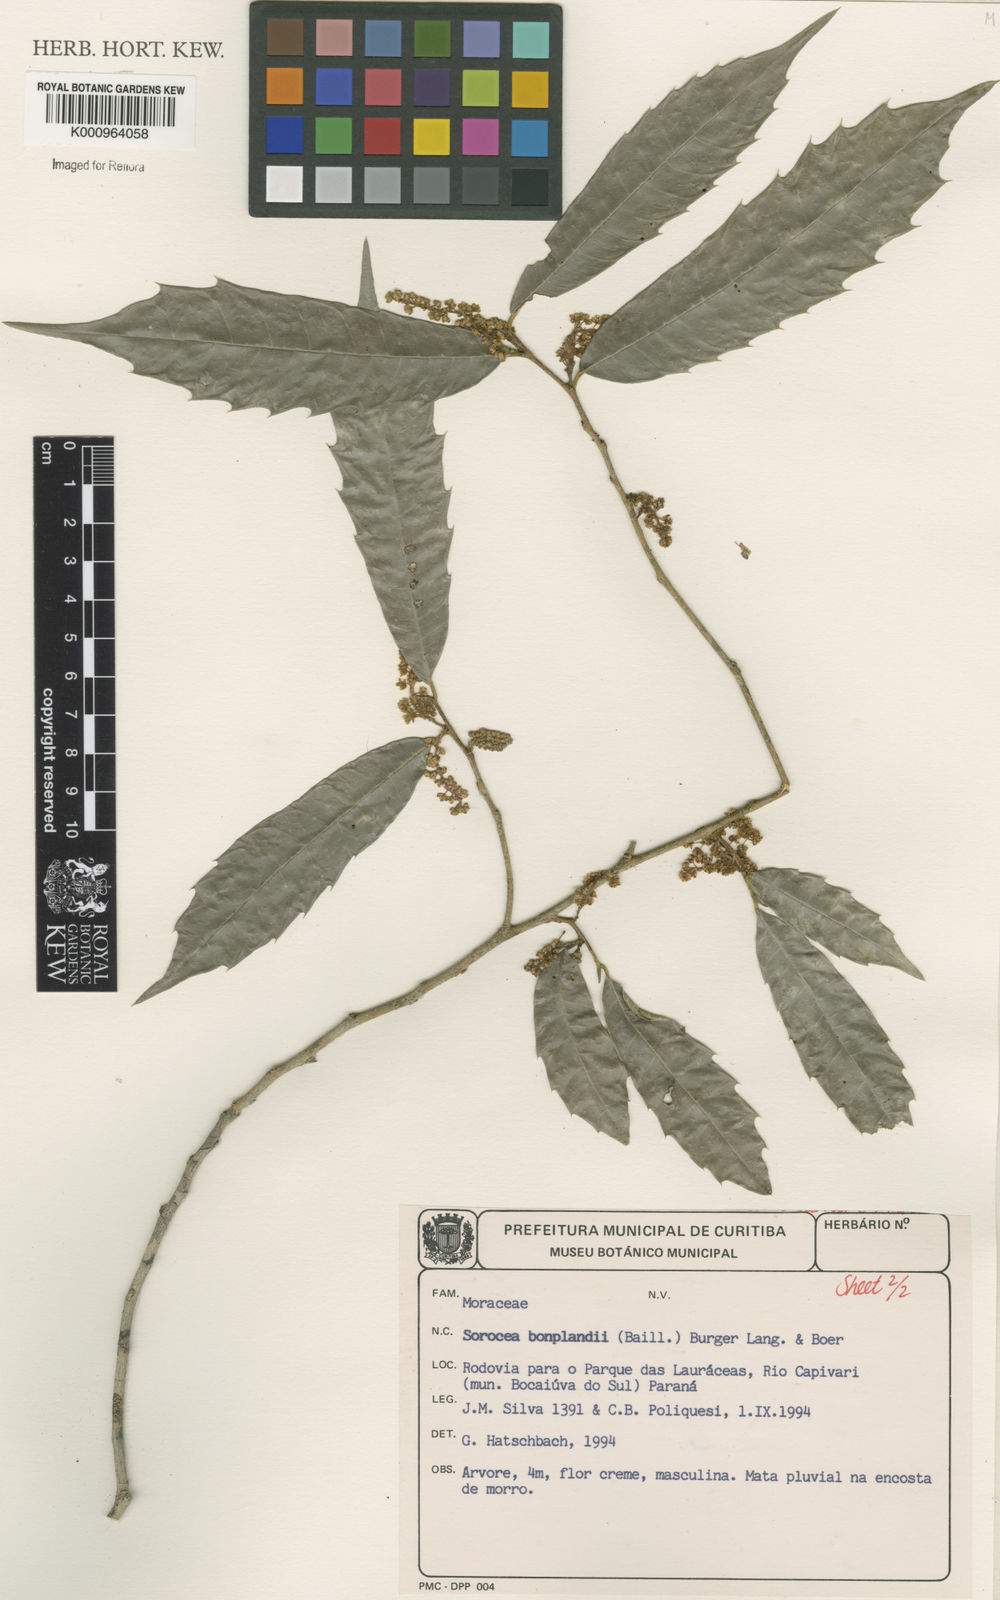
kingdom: Plantae
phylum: Tracheophyta
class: Magnoliopsida
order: Rosales
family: Moraceae
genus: Sorocea
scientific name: Sorocea
